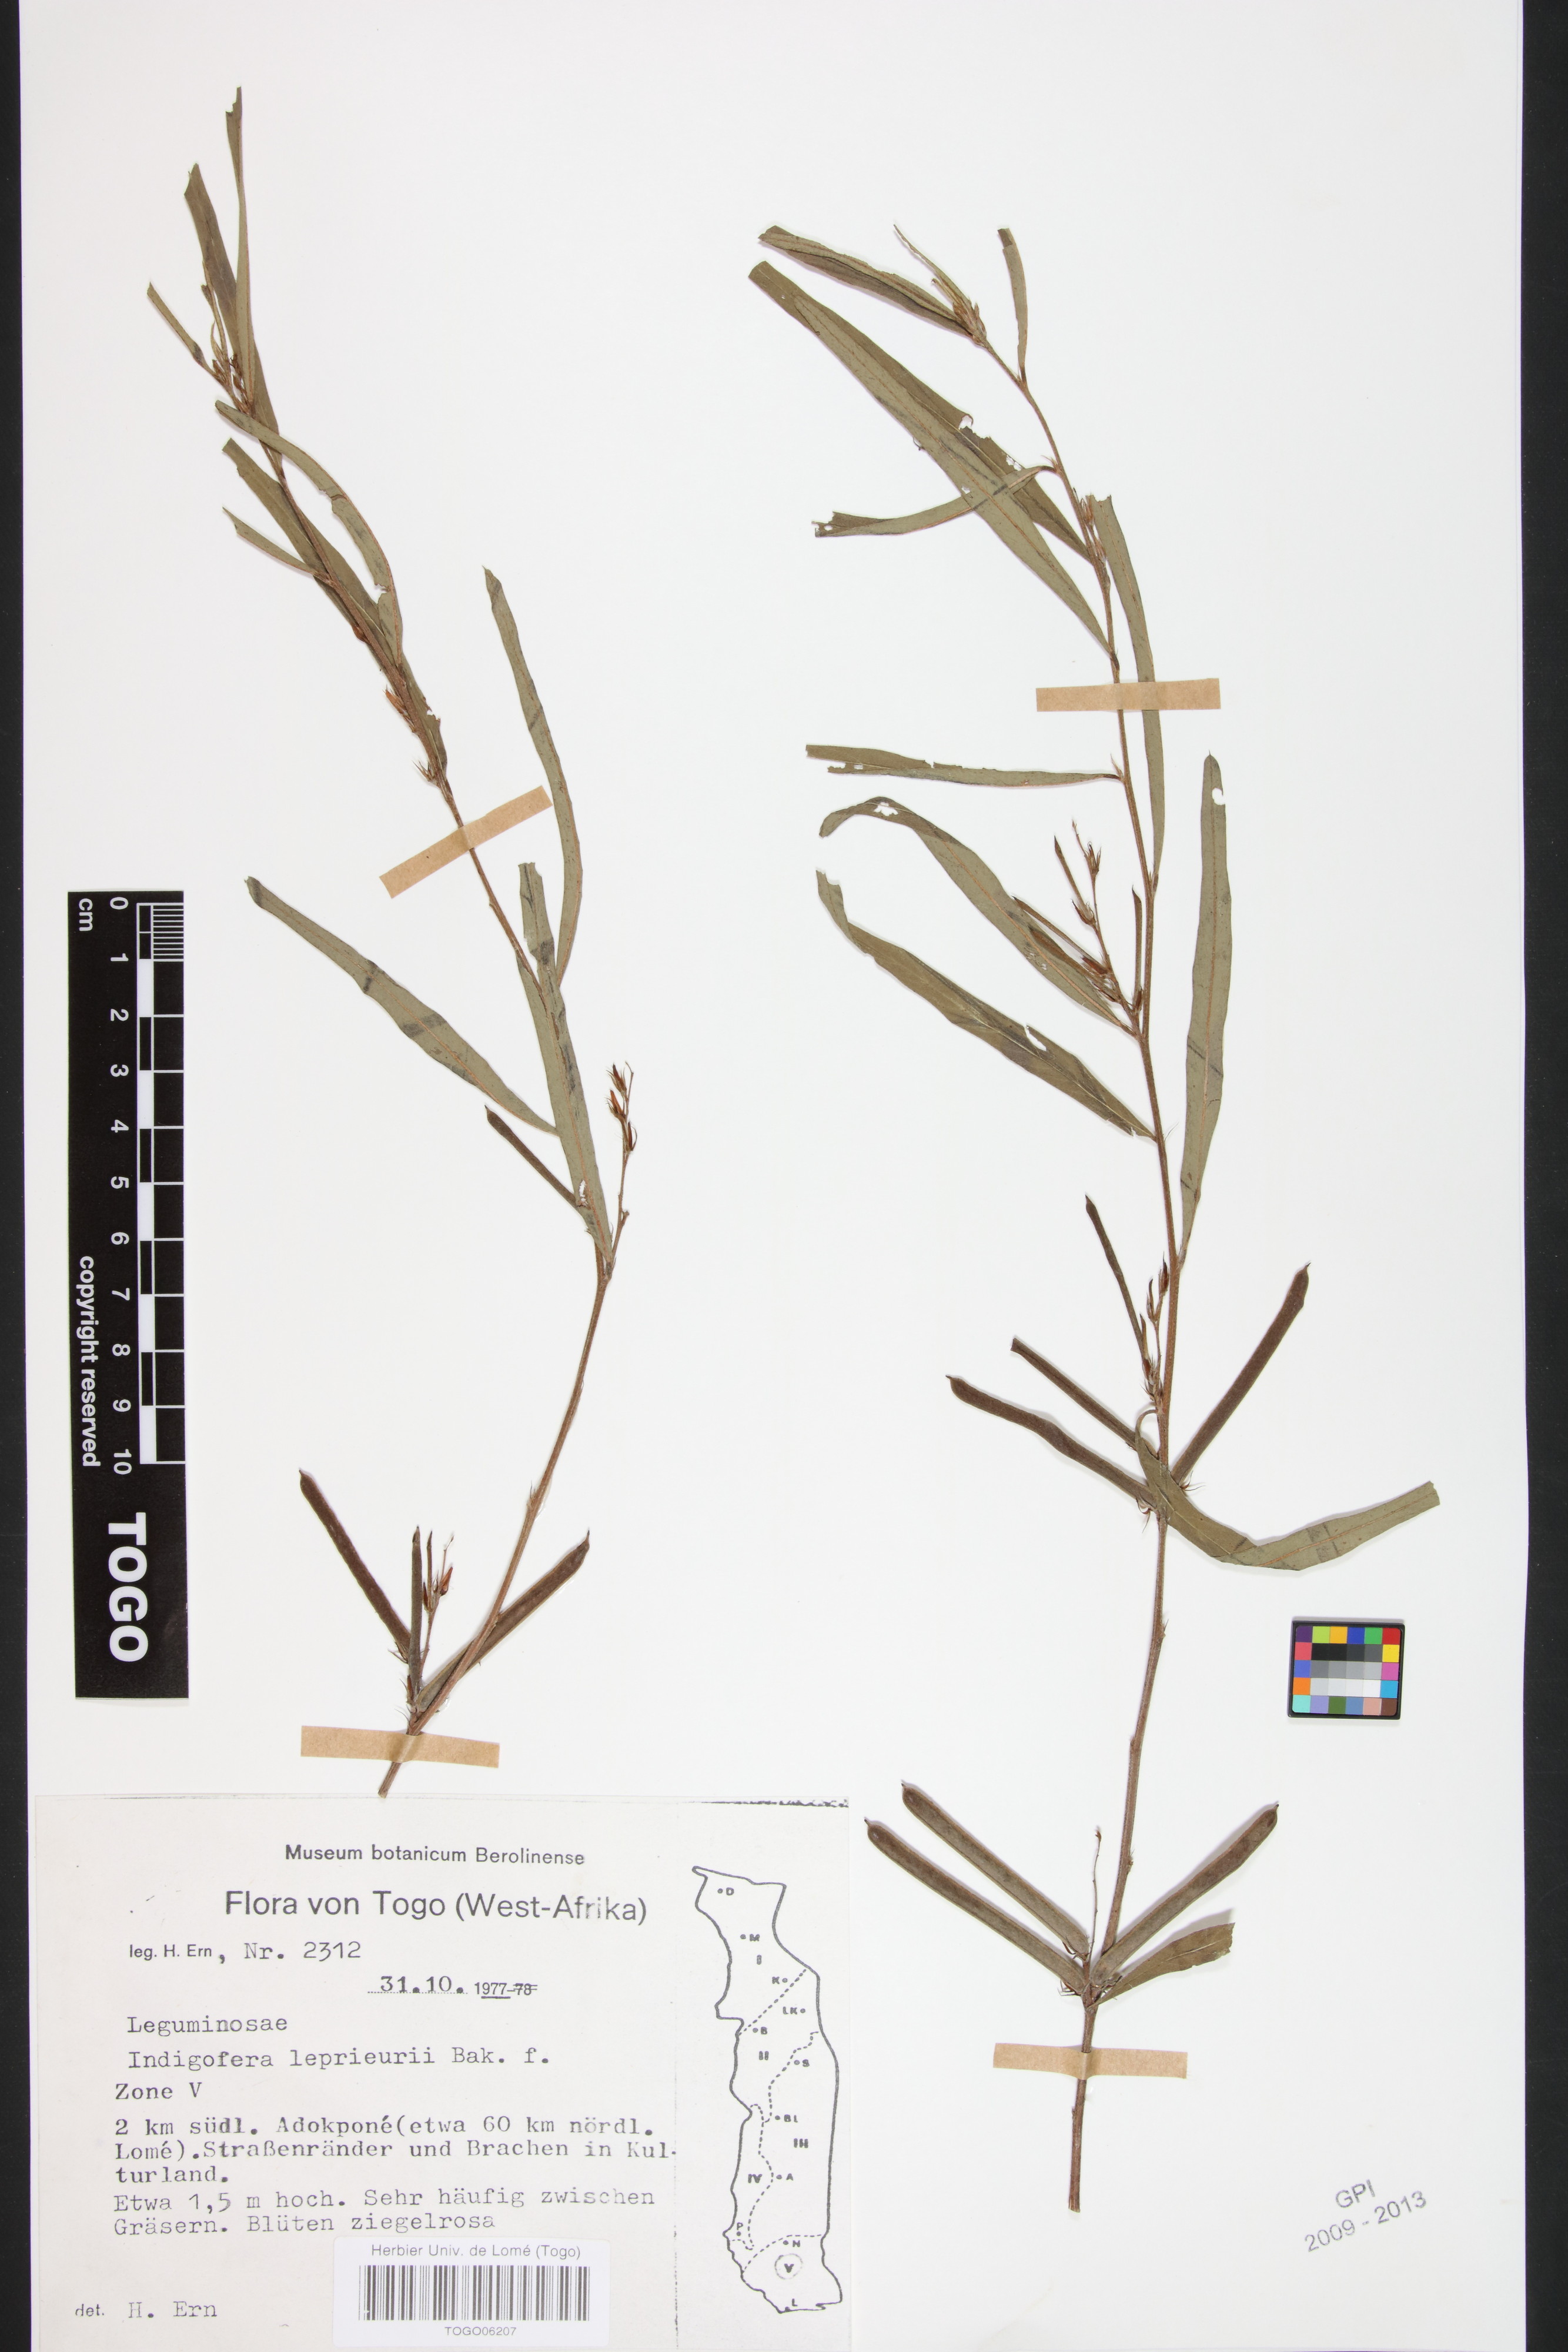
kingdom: Plantae
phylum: Tracheophyta
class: Magnoliopsida
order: Fabales
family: Fabaceae
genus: Indigofera
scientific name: Indigofera leprieurii
